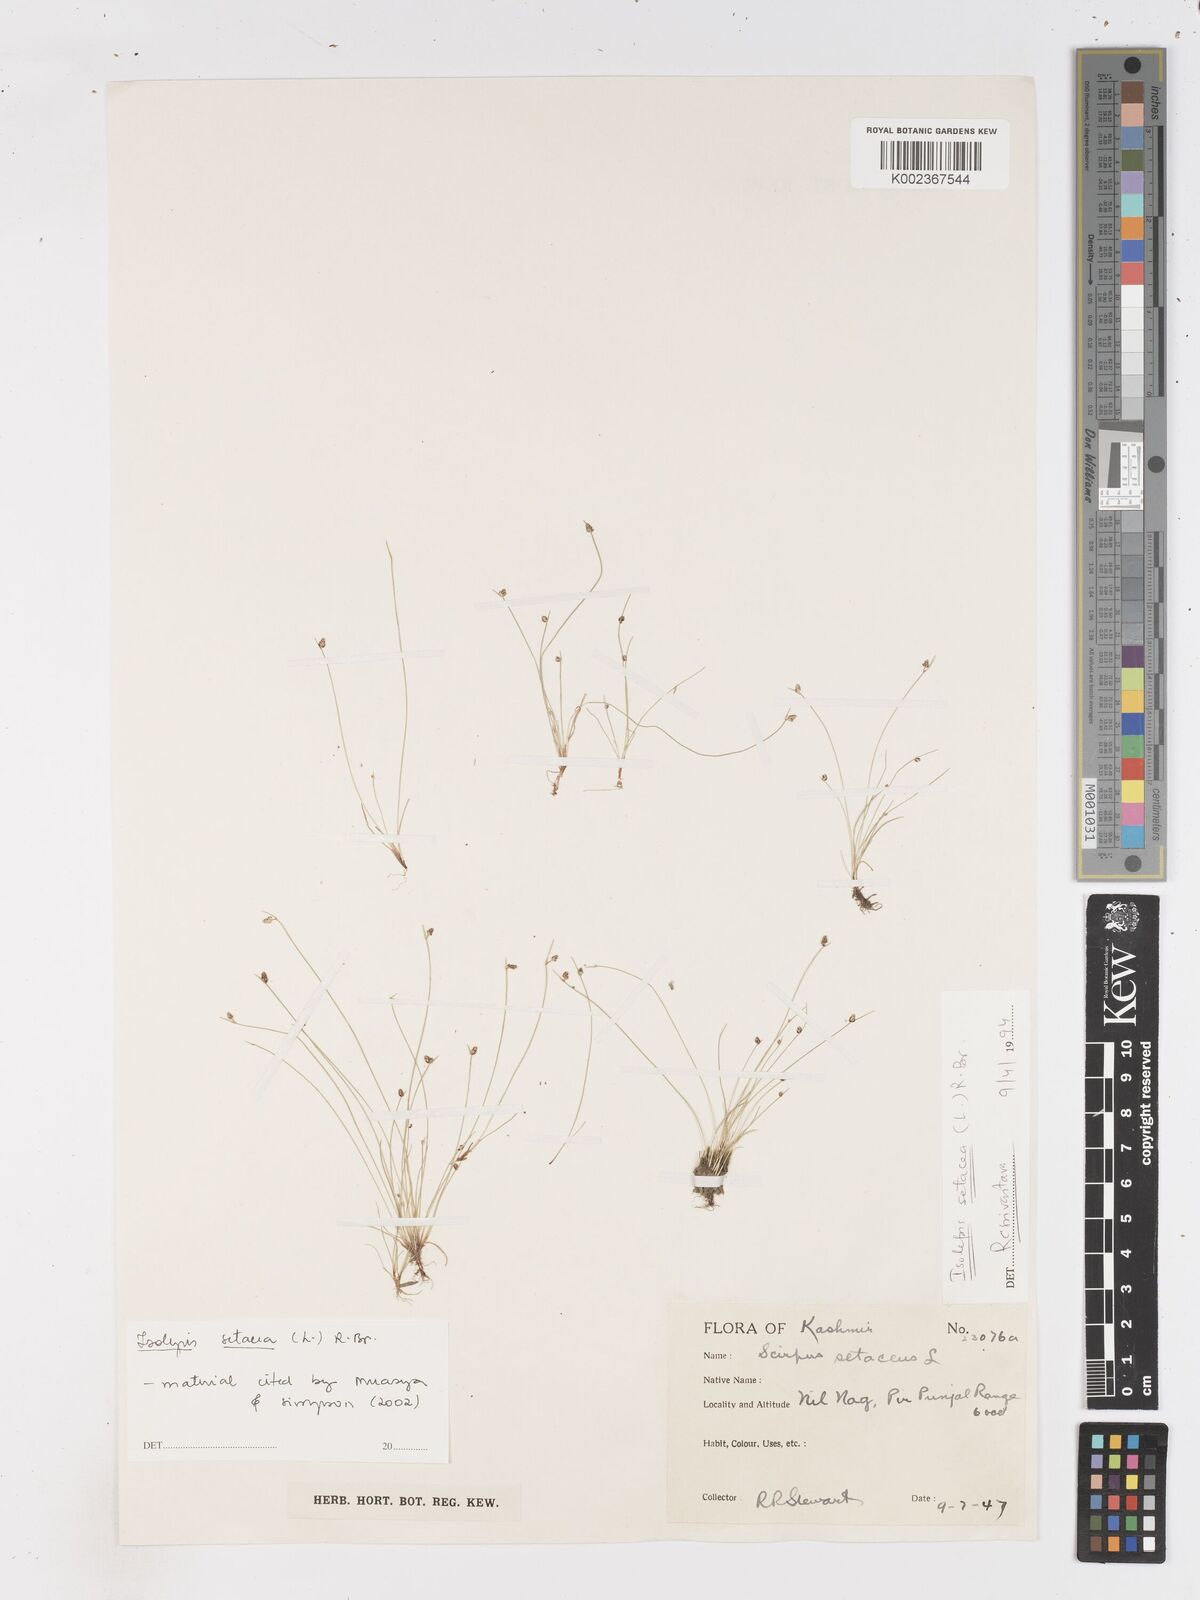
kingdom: Plantae
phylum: Tracheophyta
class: Liliopsida
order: Poales
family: Cyperaceae
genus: Isolepis
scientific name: Isolepis setacea
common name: Bristle club-rush
